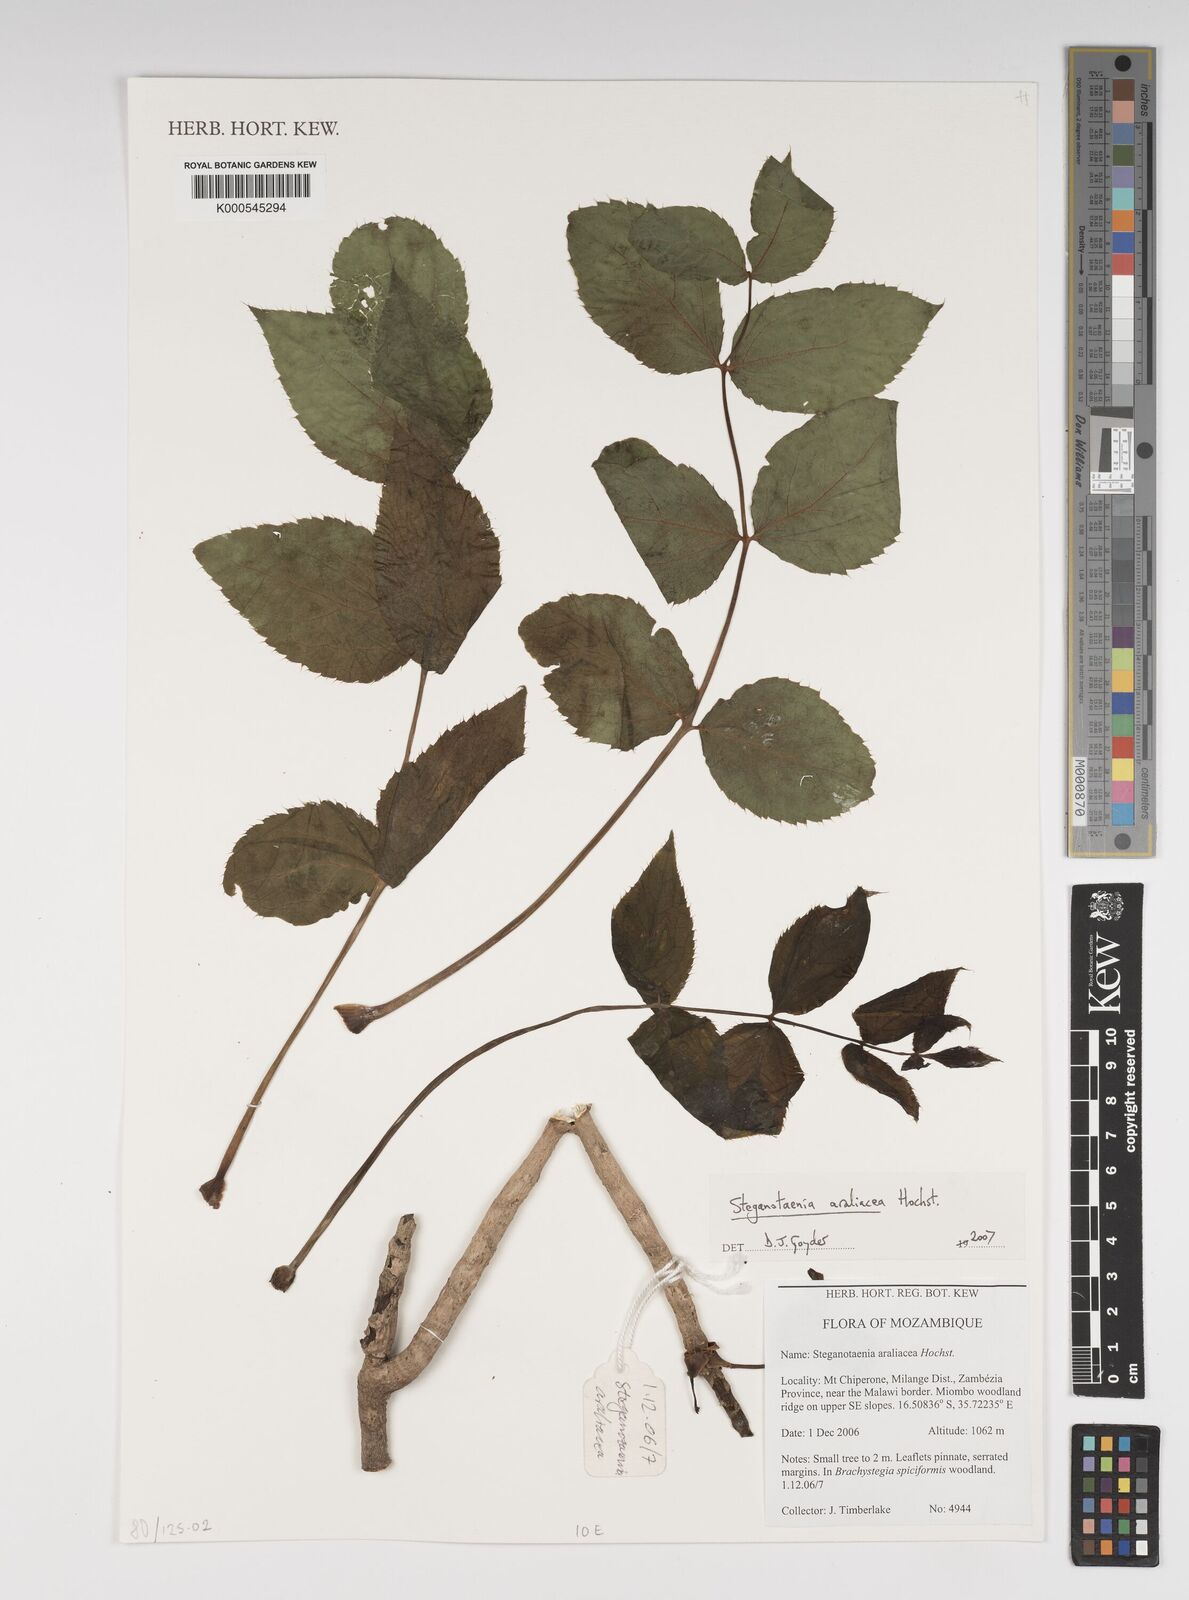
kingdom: Plantae
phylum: Tracheophyta
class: Magnoliopsida
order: Apiales
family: Apiaceae
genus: Steganotaenia
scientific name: Steganotaenia
